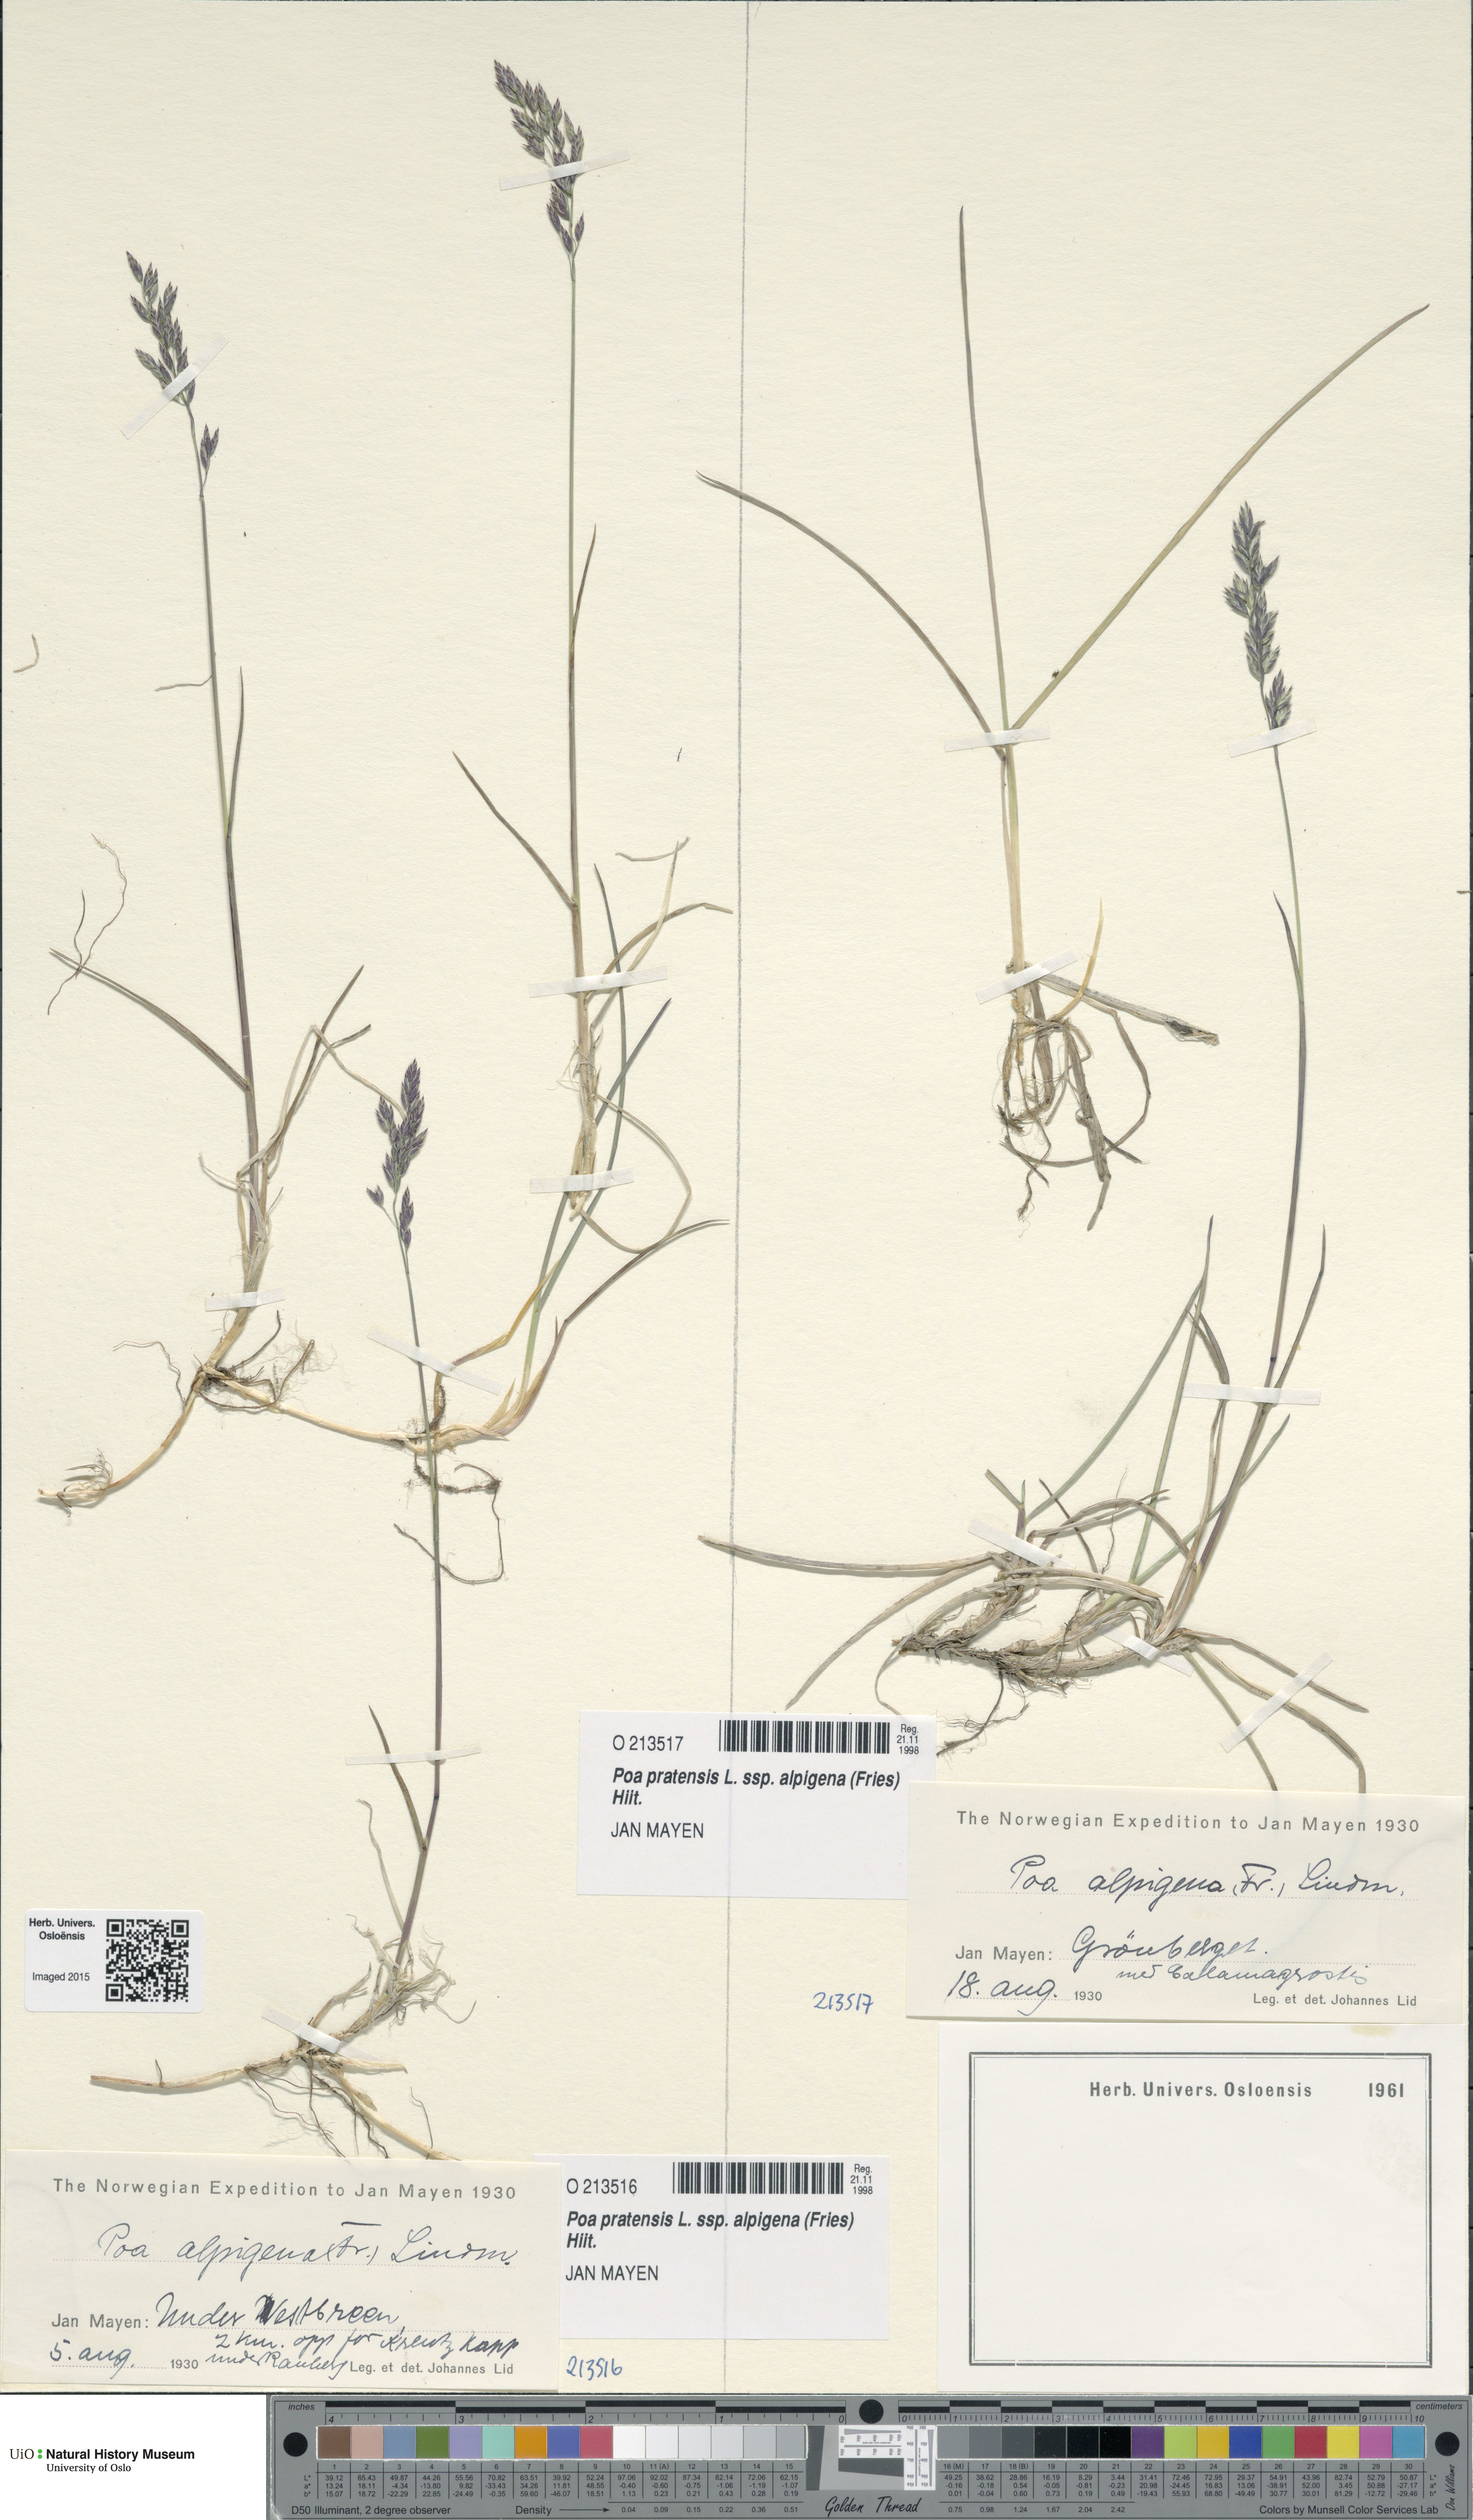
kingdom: Plantae
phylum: Tracheophyta
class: Liliopsida
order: Poales
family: Poaceae
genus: Poa
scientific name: Poa alpigena
